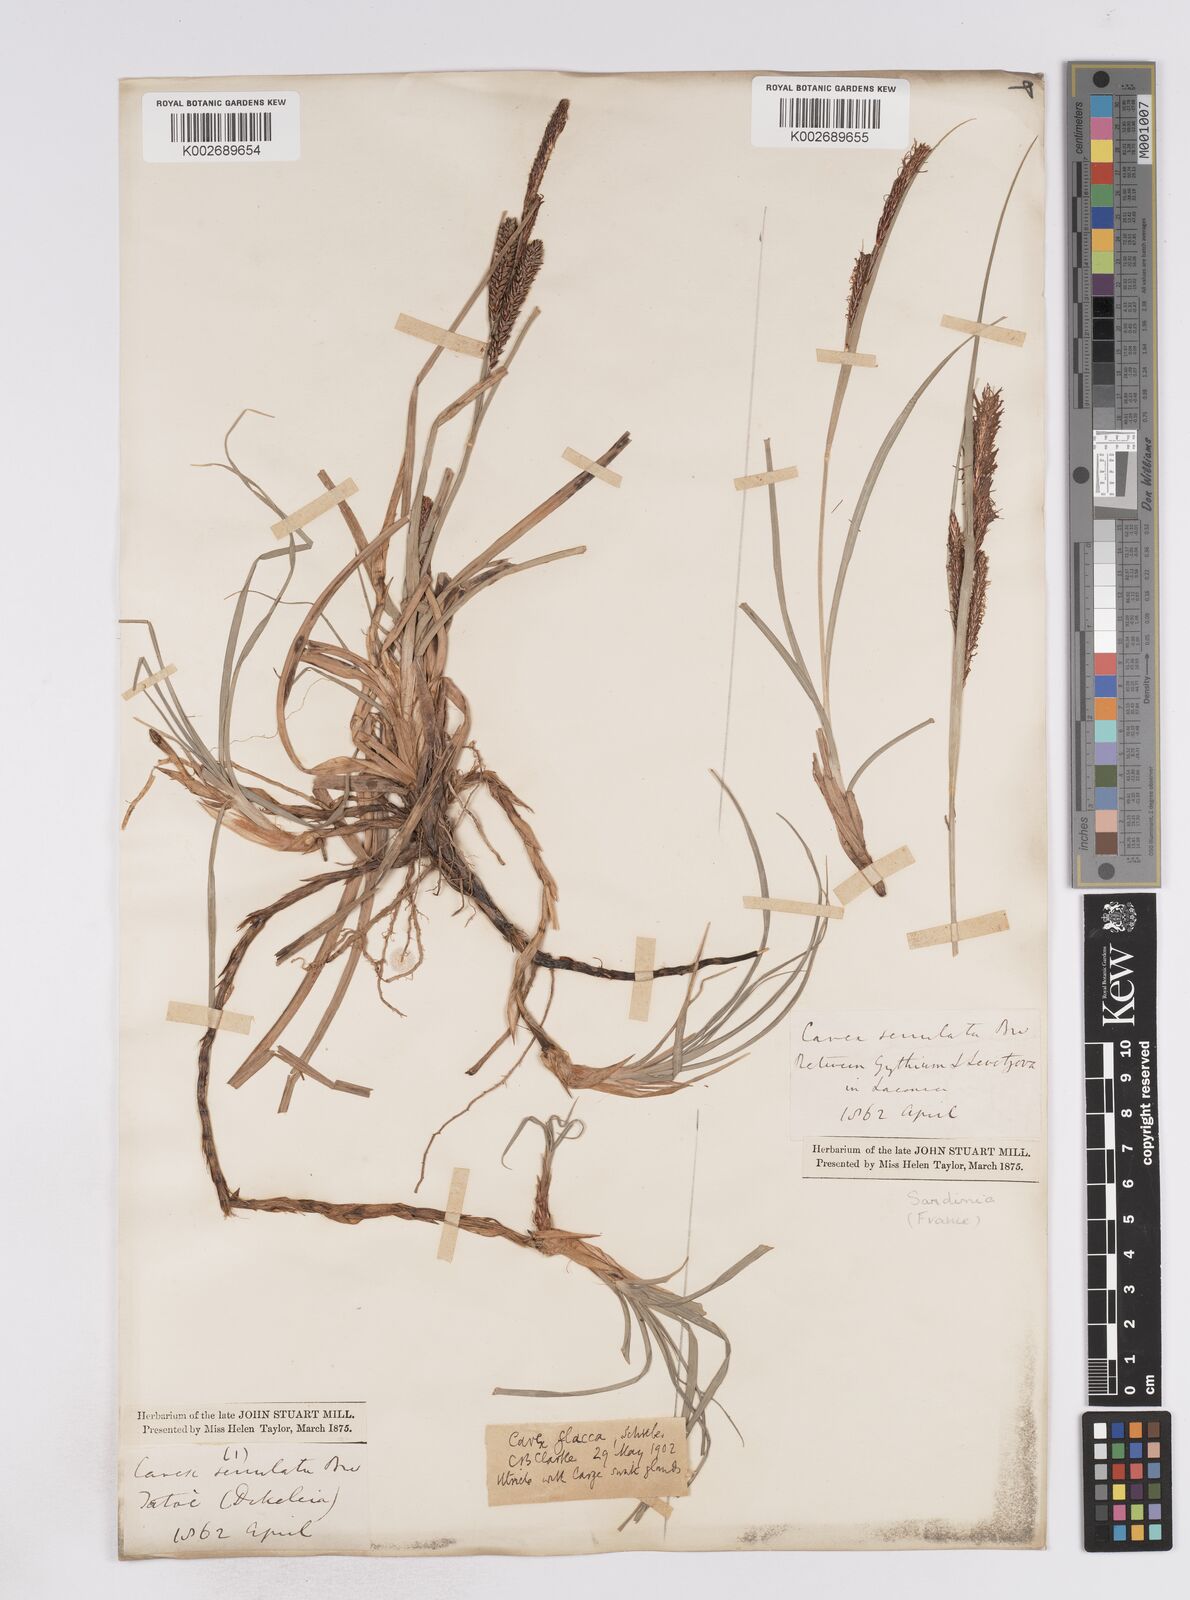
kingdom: Plantae
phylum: Tracheophyta
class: Liliopsida
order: Poales
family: Cyperaceae
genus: Carex
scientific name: Carex flacca
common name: Glaucous sedge
